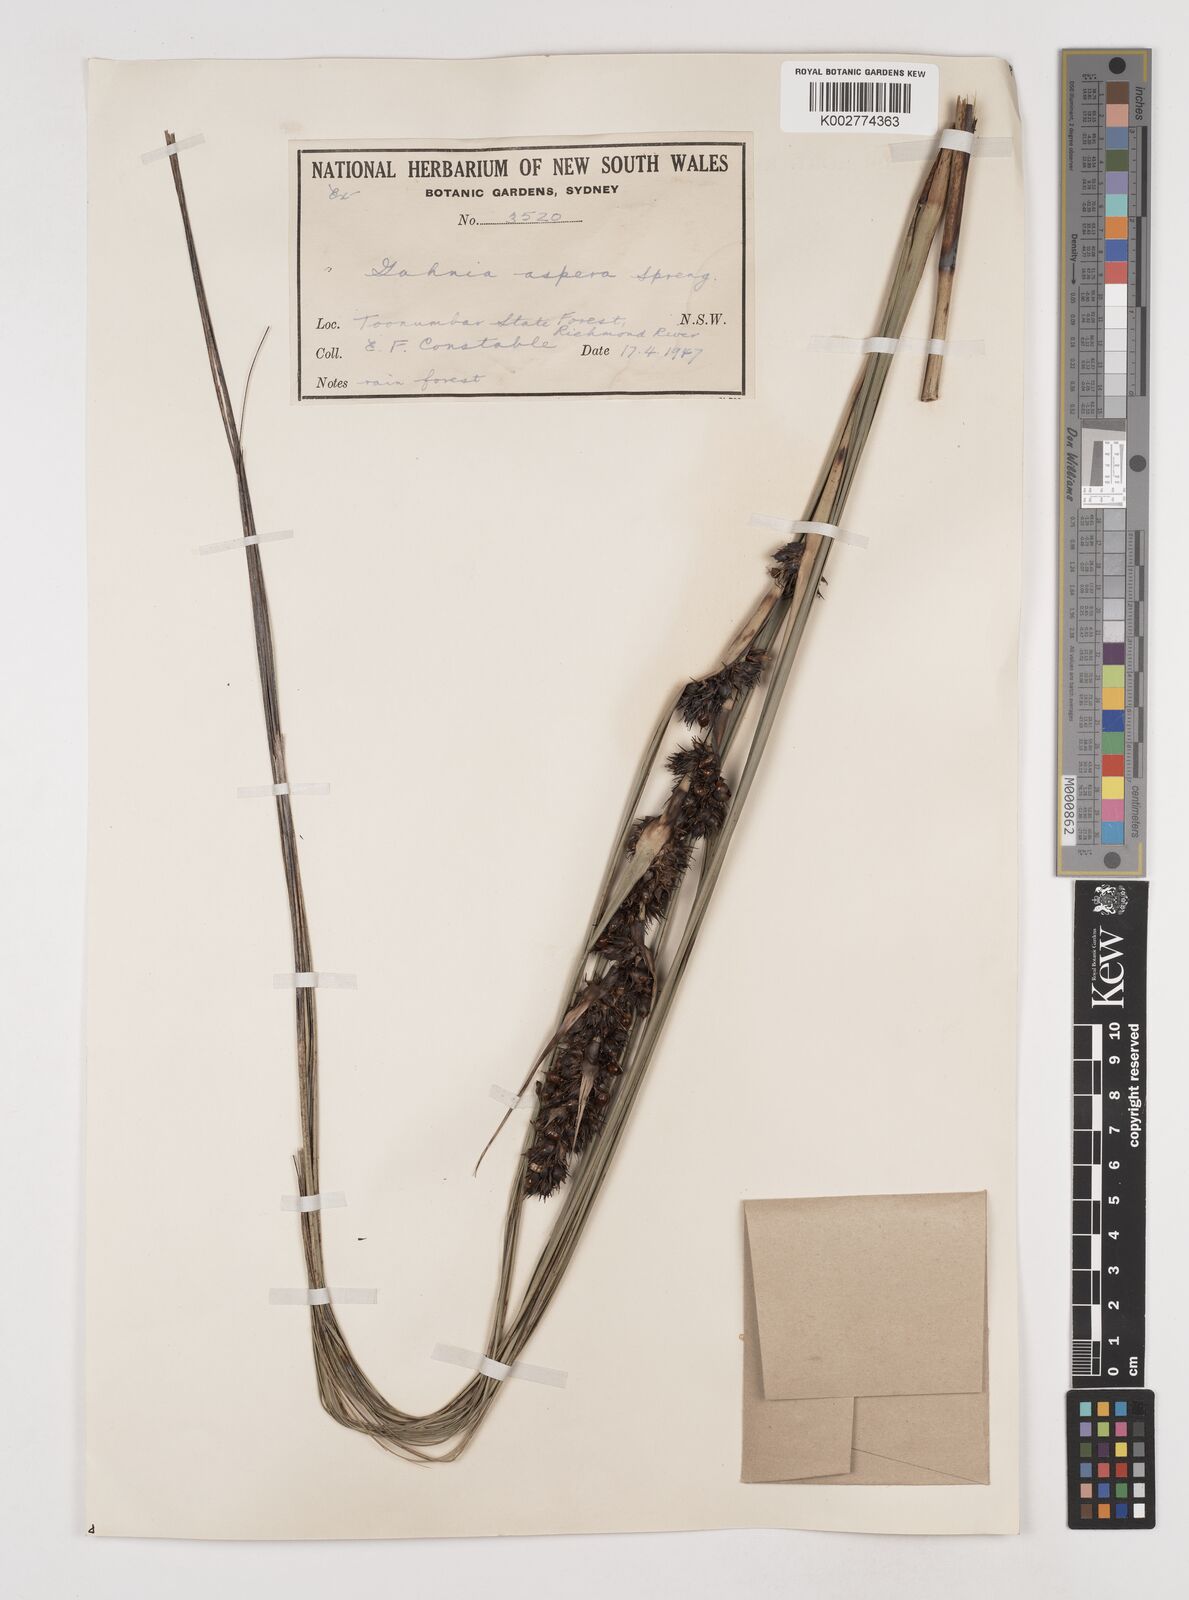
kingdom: Plantae
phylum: Tracheophyta
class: Liliopsida
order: Poales
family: Cyperaceae
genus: Gahnia
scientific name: Gahnia aspera
